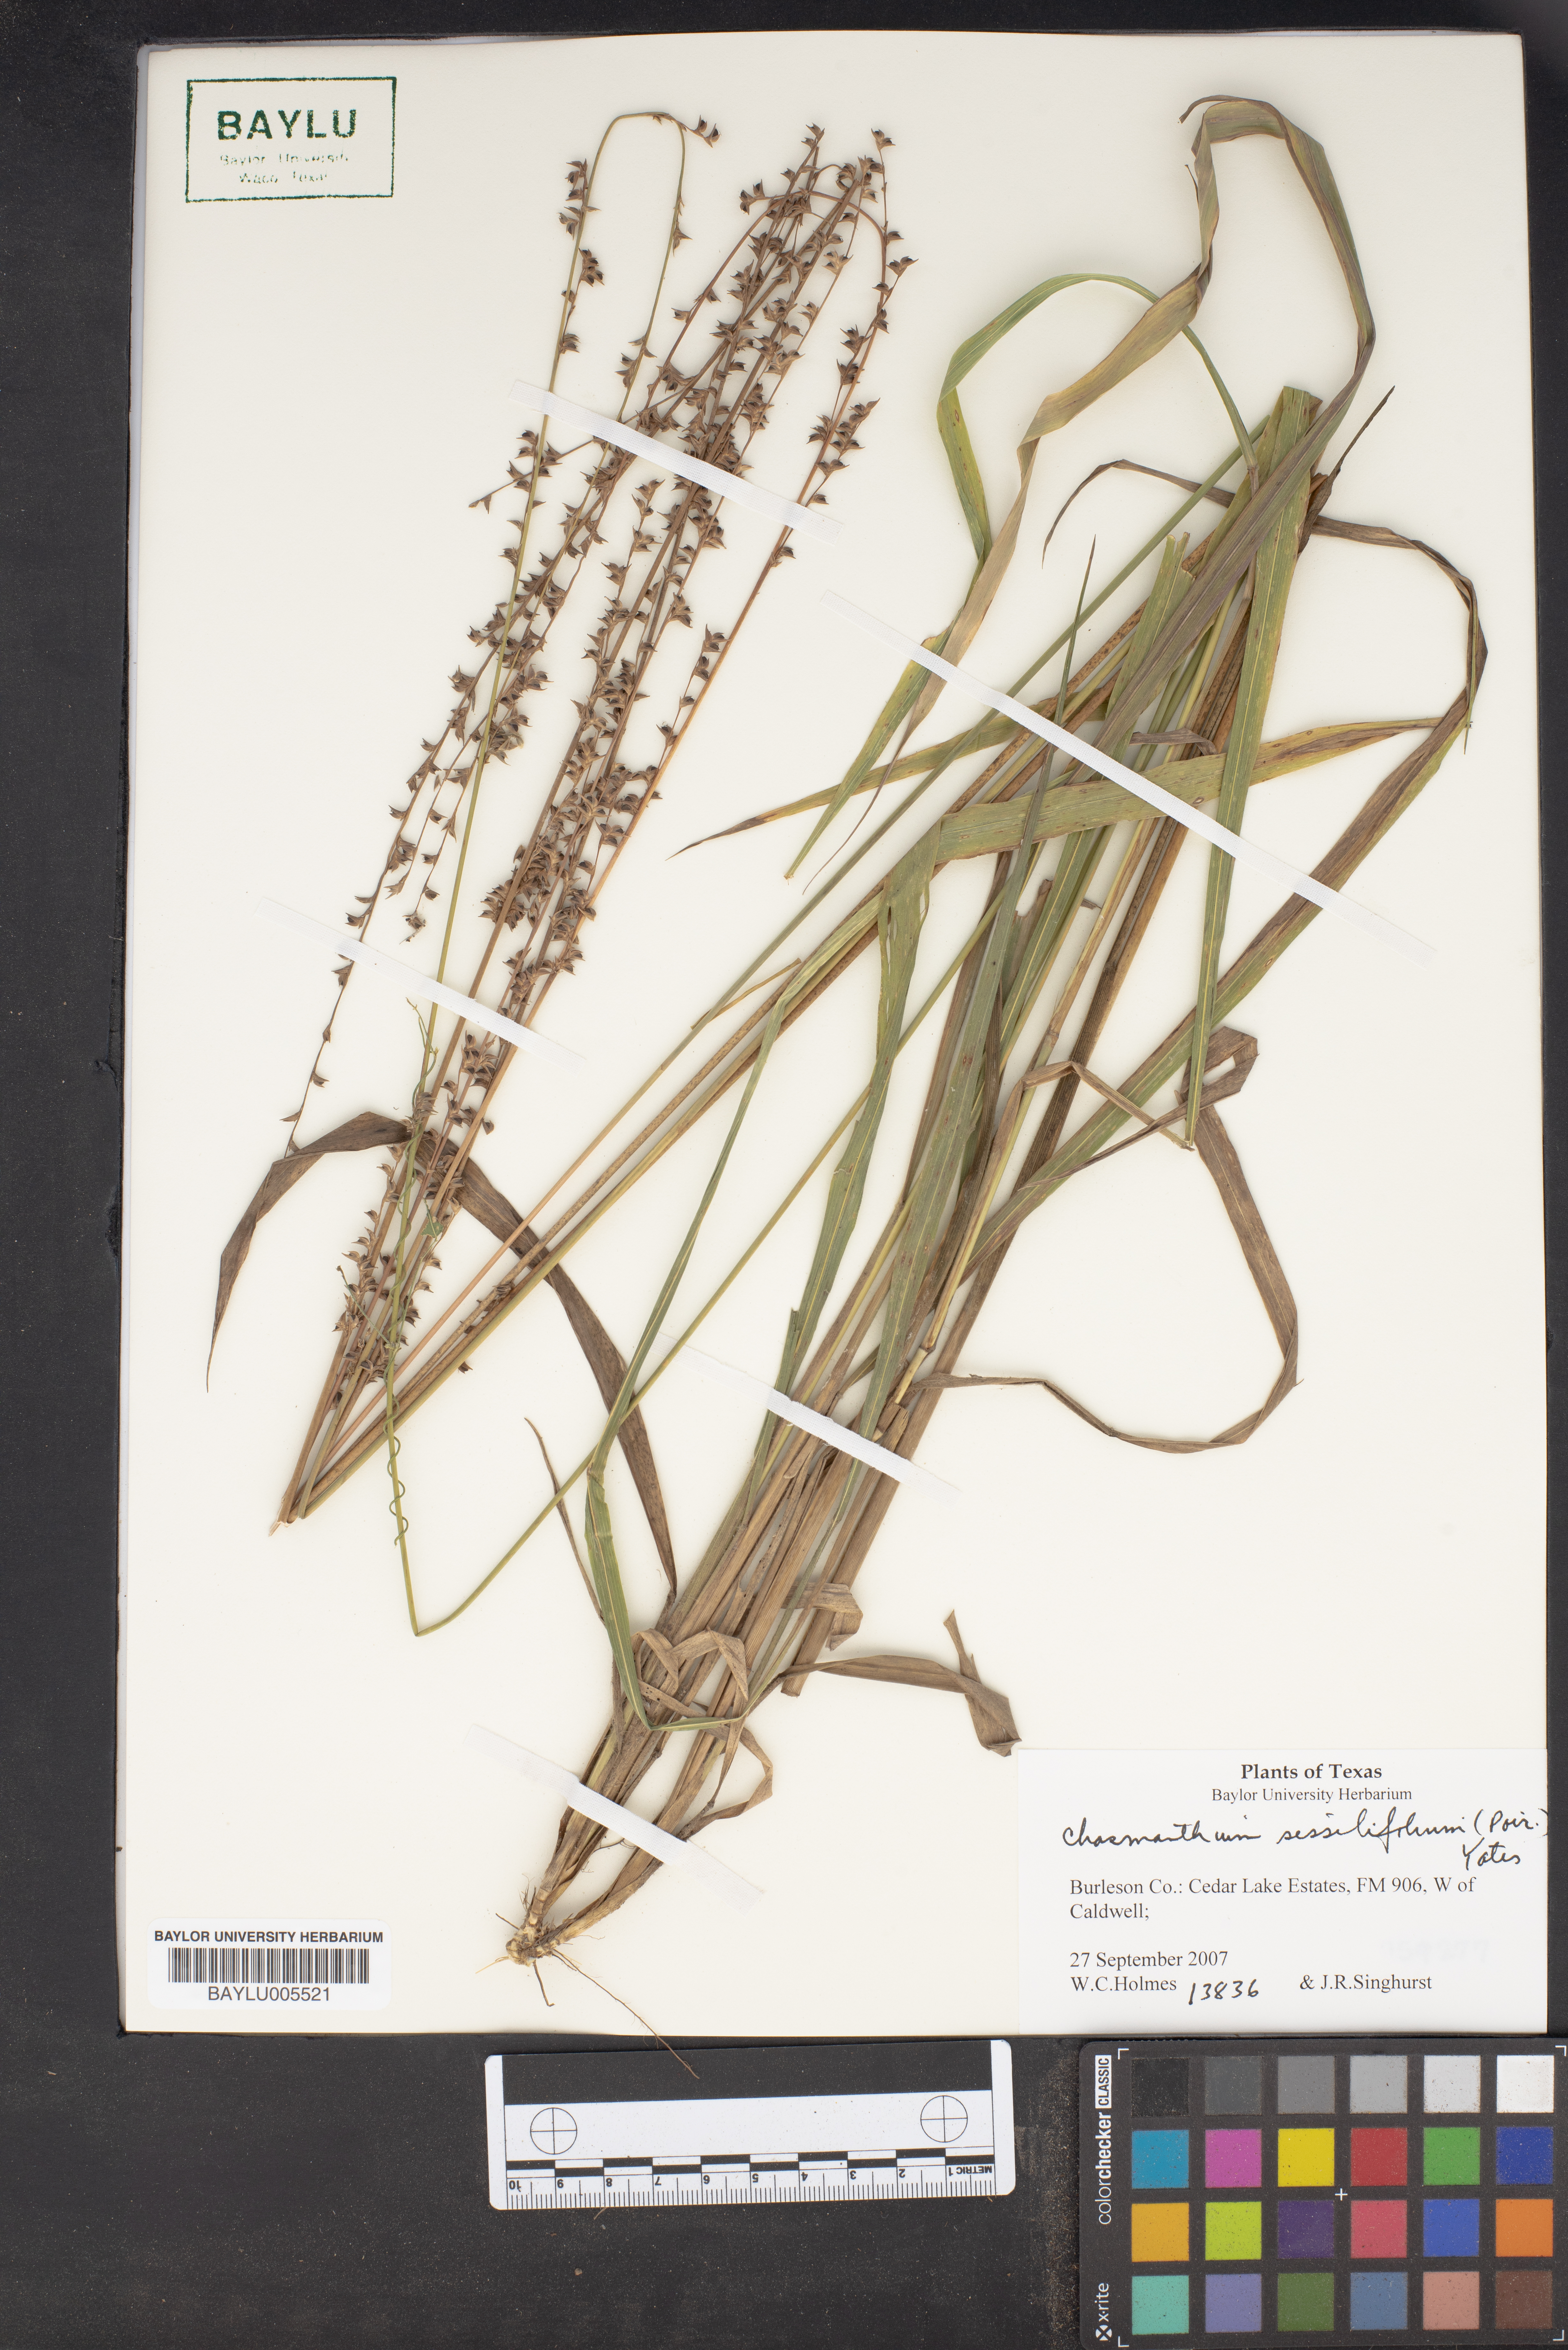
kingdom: Plantae
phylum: Tracheophyta
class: Liliopsida
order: Poales
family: Poaceae
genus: Chasmanthium
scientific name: Chasmanthium laxum
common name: Slender chasmanthium
